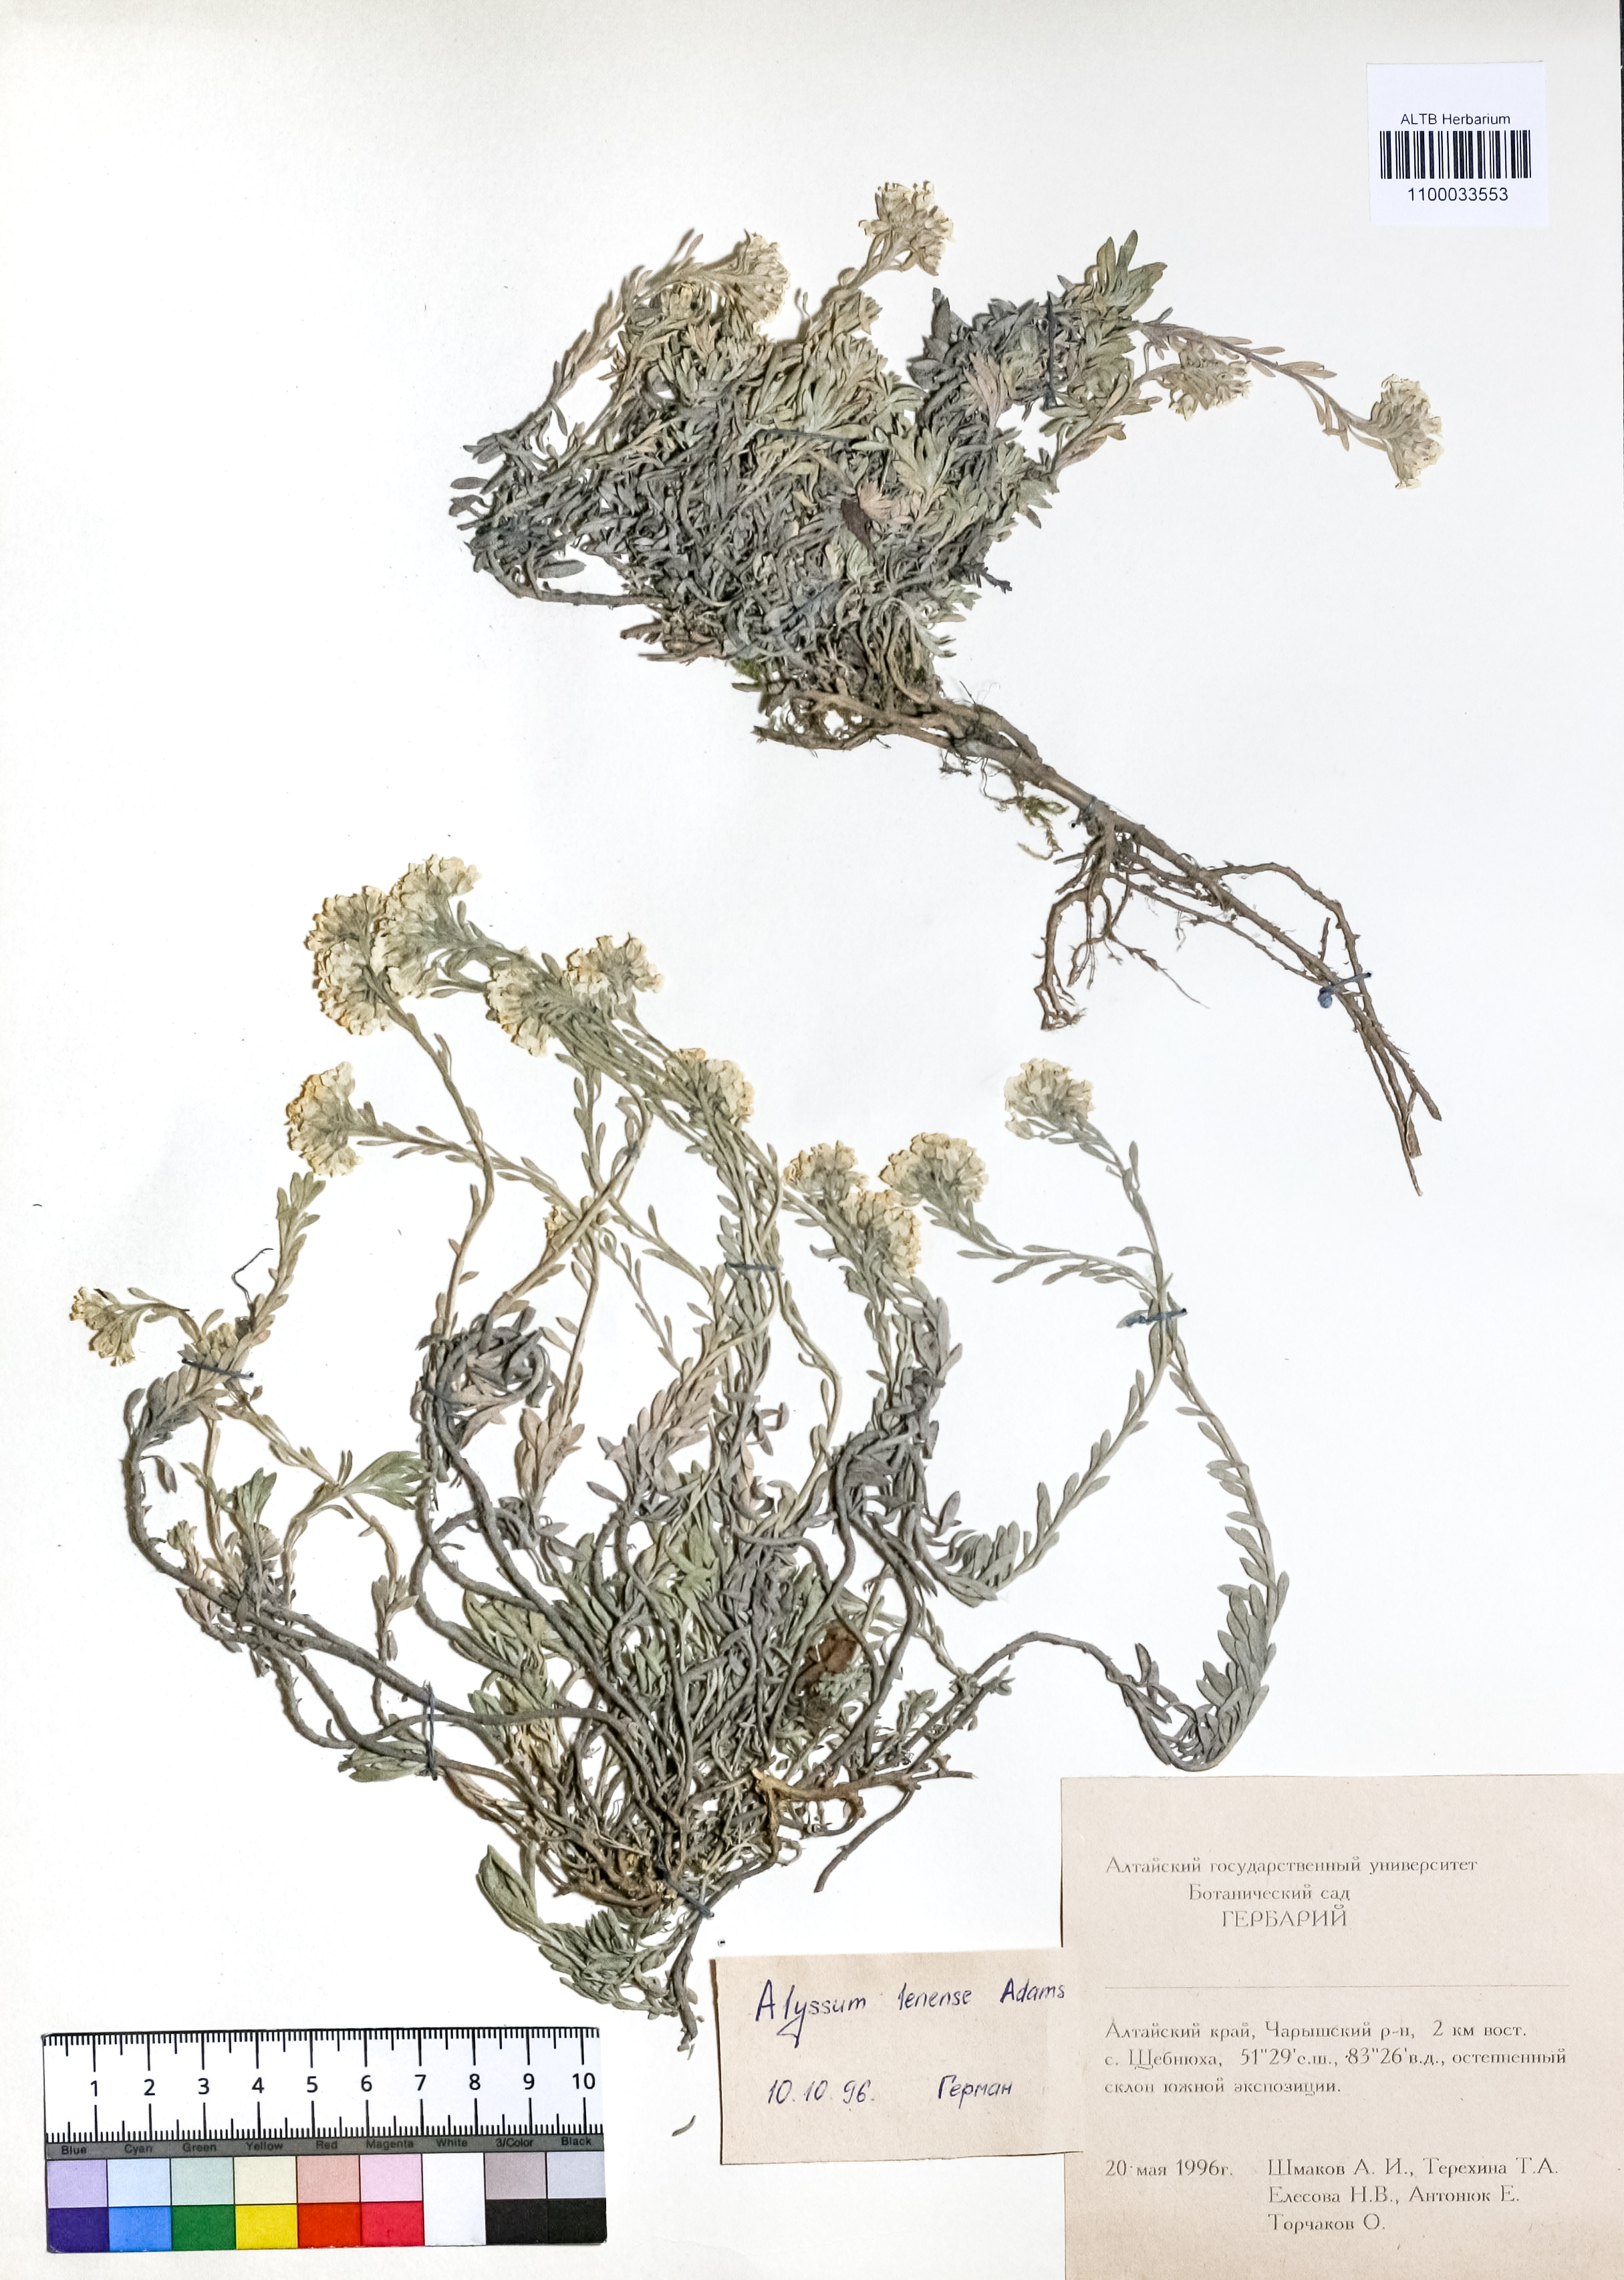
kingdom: Plantae
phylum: Tracheophyta
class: Magnoliopsida
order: Brassicales
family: Brassicaceae
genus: Alyssum
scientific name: Alyssum lenense
